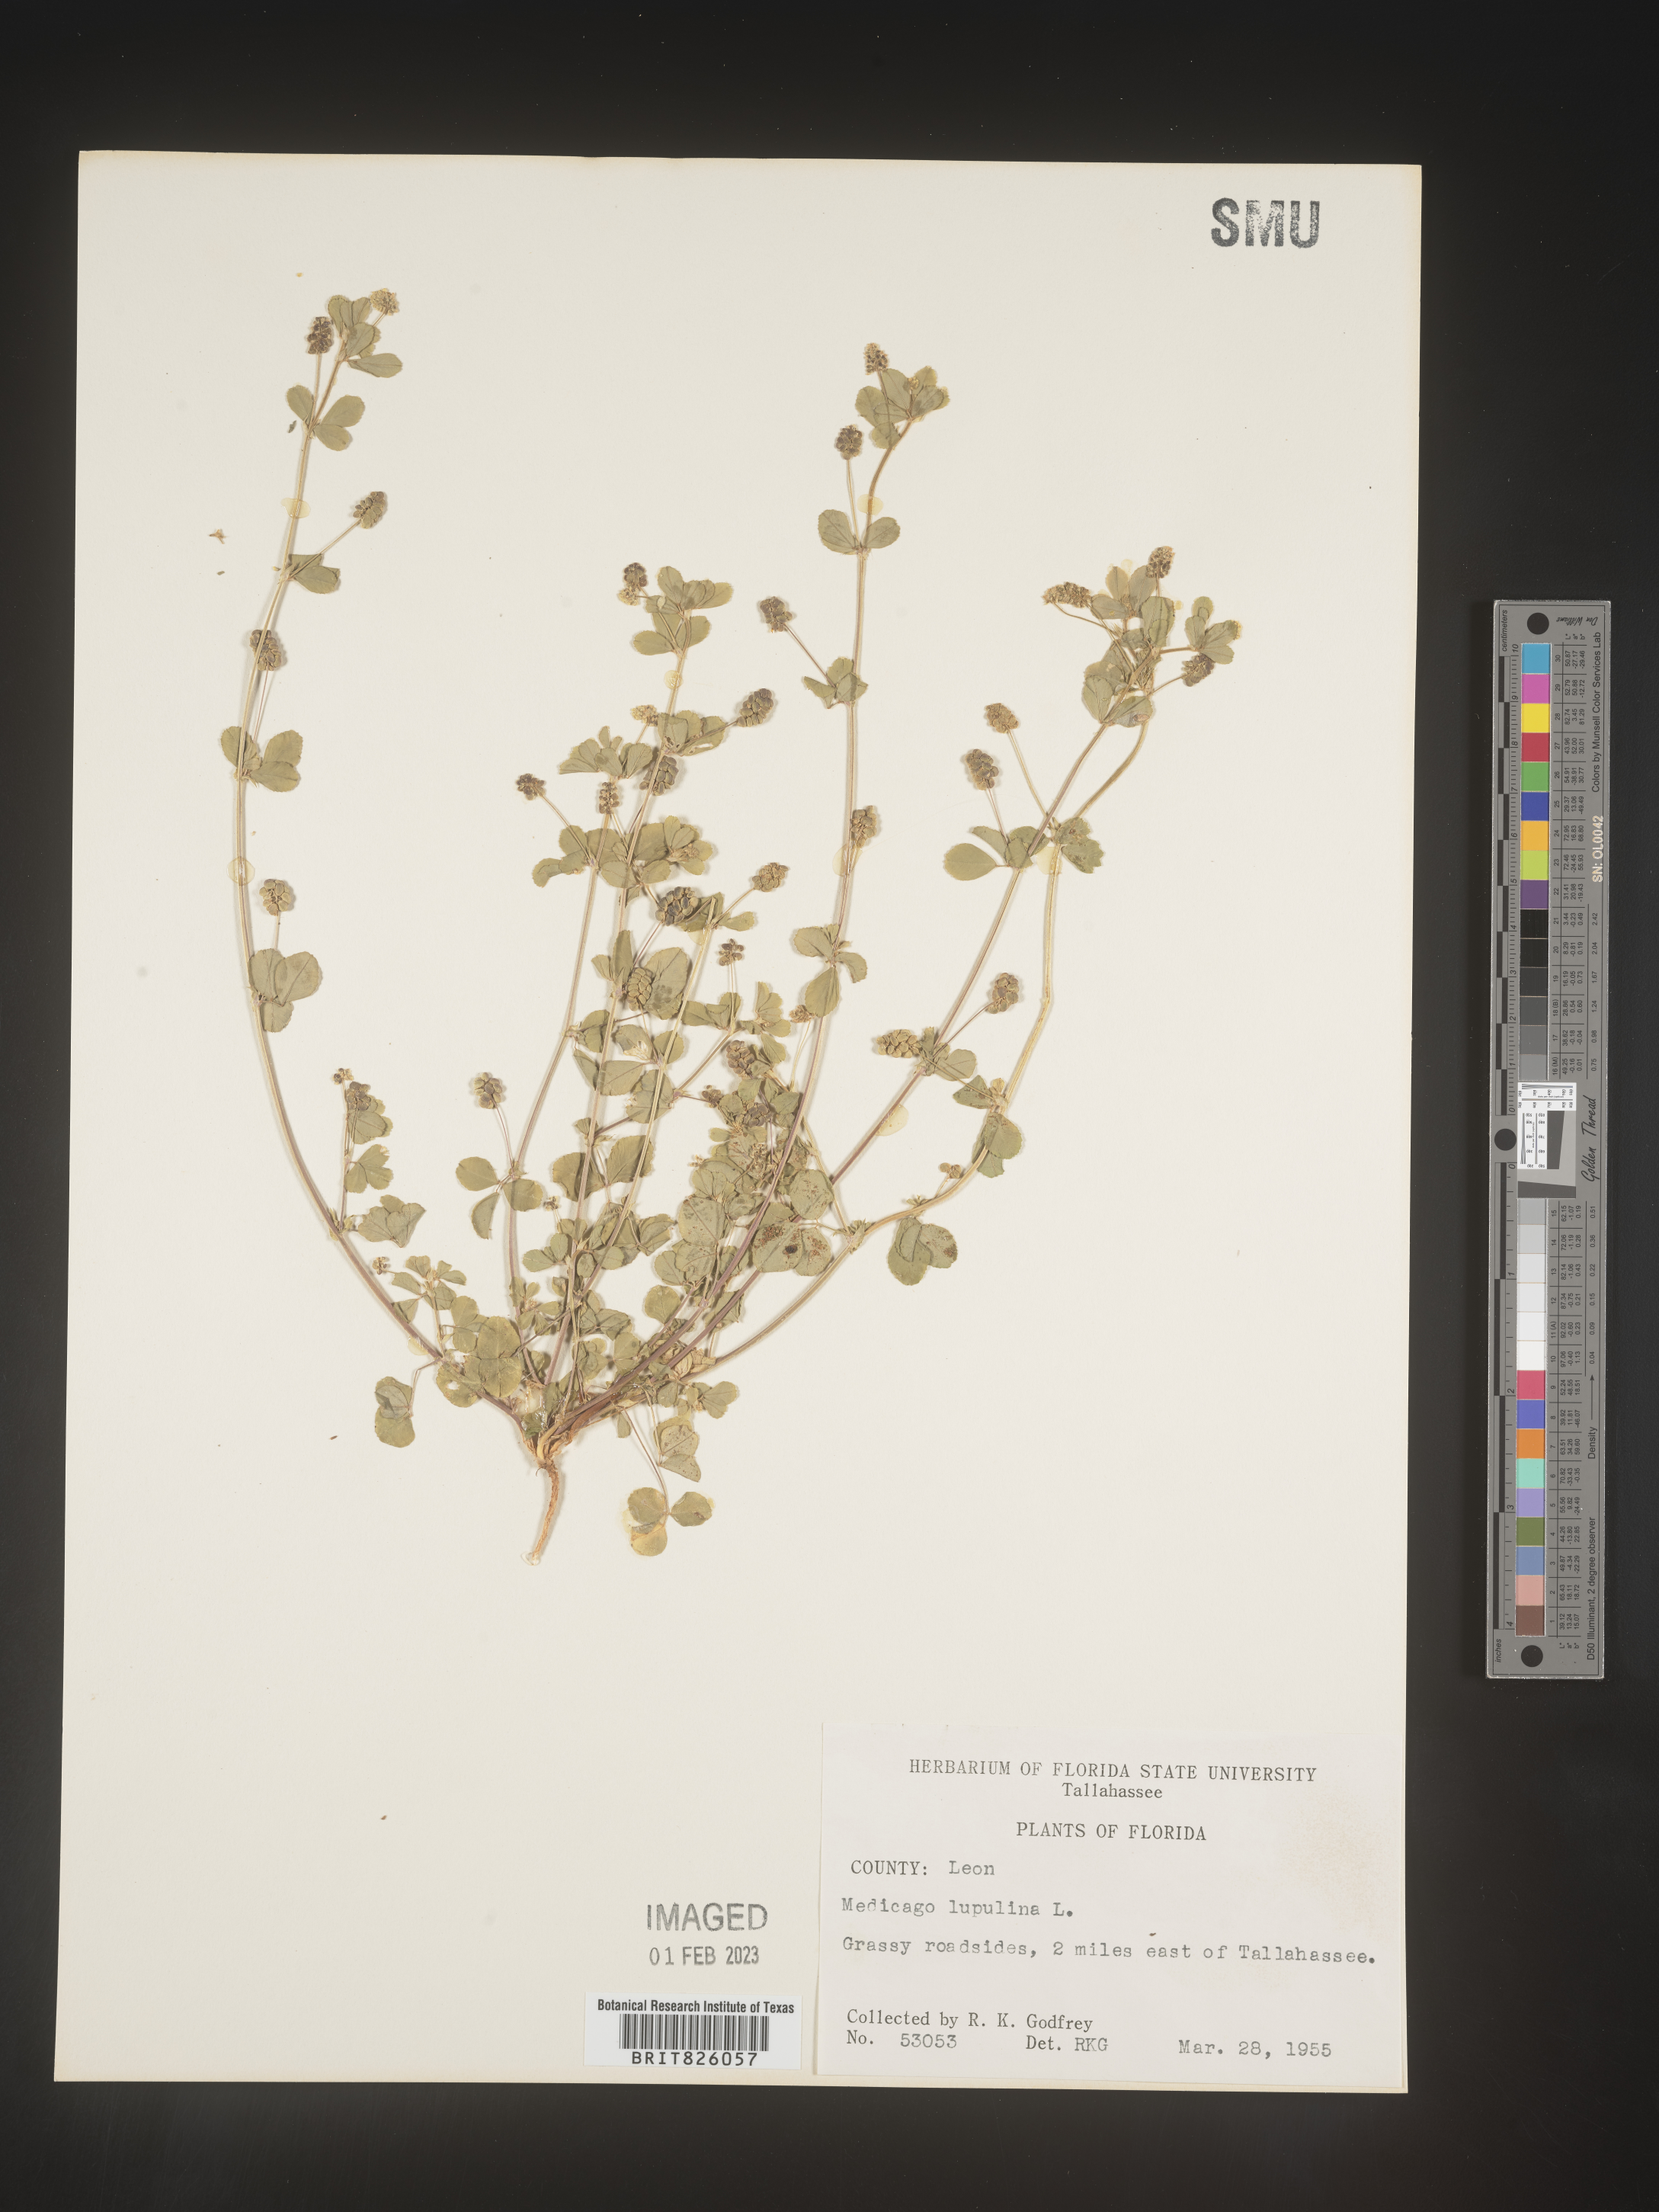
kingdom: Plantae
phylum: Tracheophyta
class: Magnoliopsida
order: Fabales
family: Fabaceae
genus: Medicago
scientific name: Medicago lupulina
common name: Black medick
